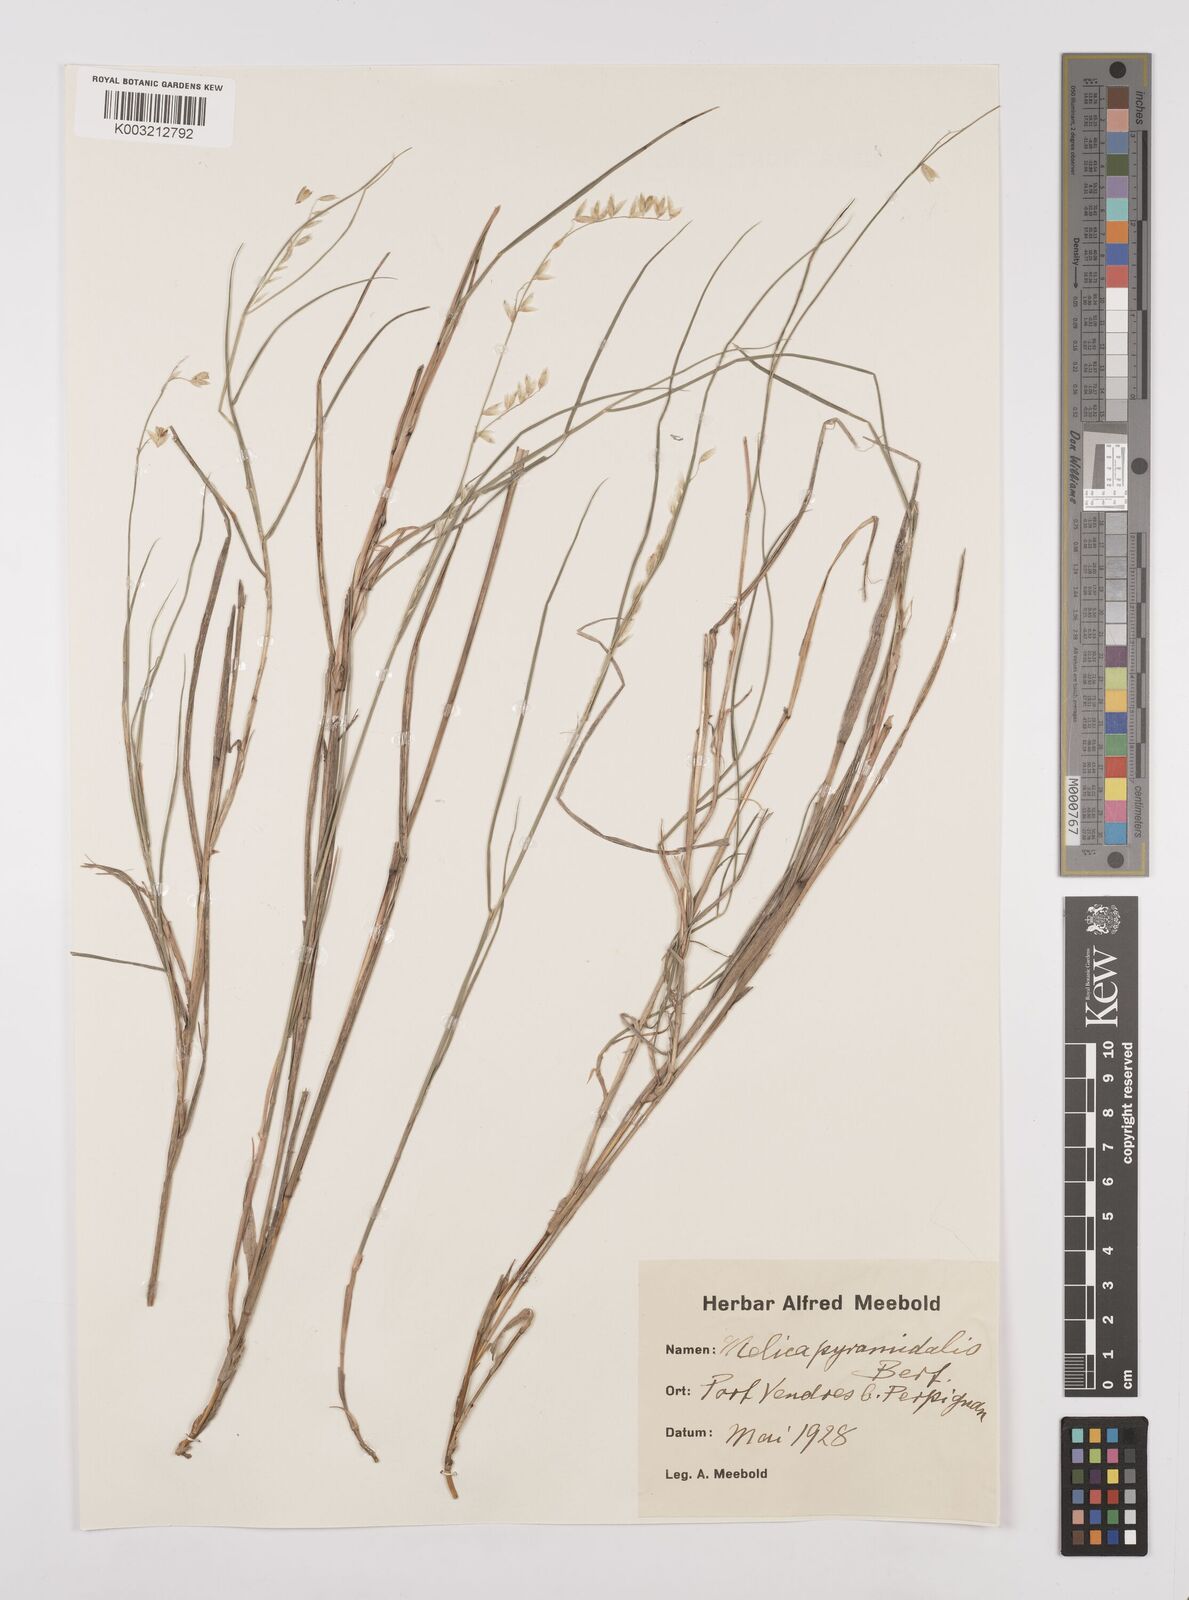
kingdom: Plantae
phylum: Tracheophyta
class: Liliopsida
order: Poales
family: Poaceae
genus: Melica
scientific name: Melica minuta
